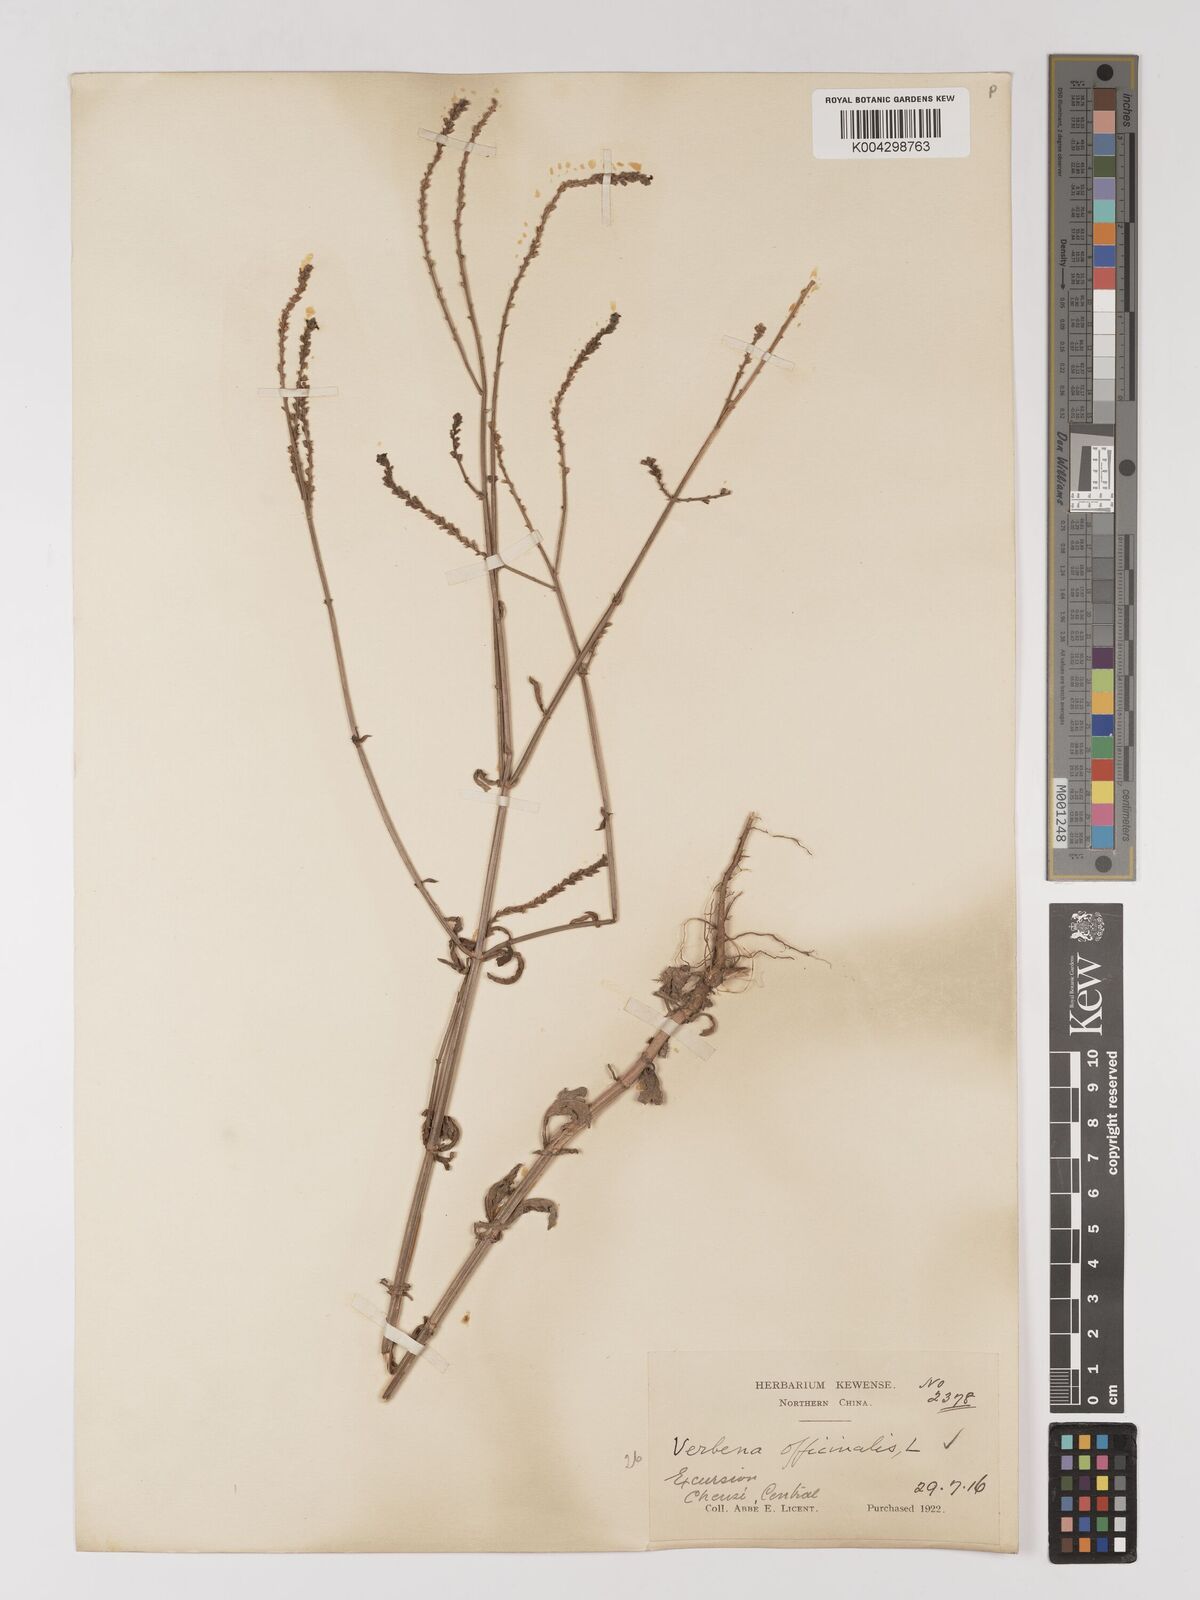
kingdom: Plantae
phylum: Tracheophyta
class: Magnoliopsida
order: Lamiales
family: Verbenaceae
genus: Verbena
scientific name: Verbena officinalis
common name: Vervain
